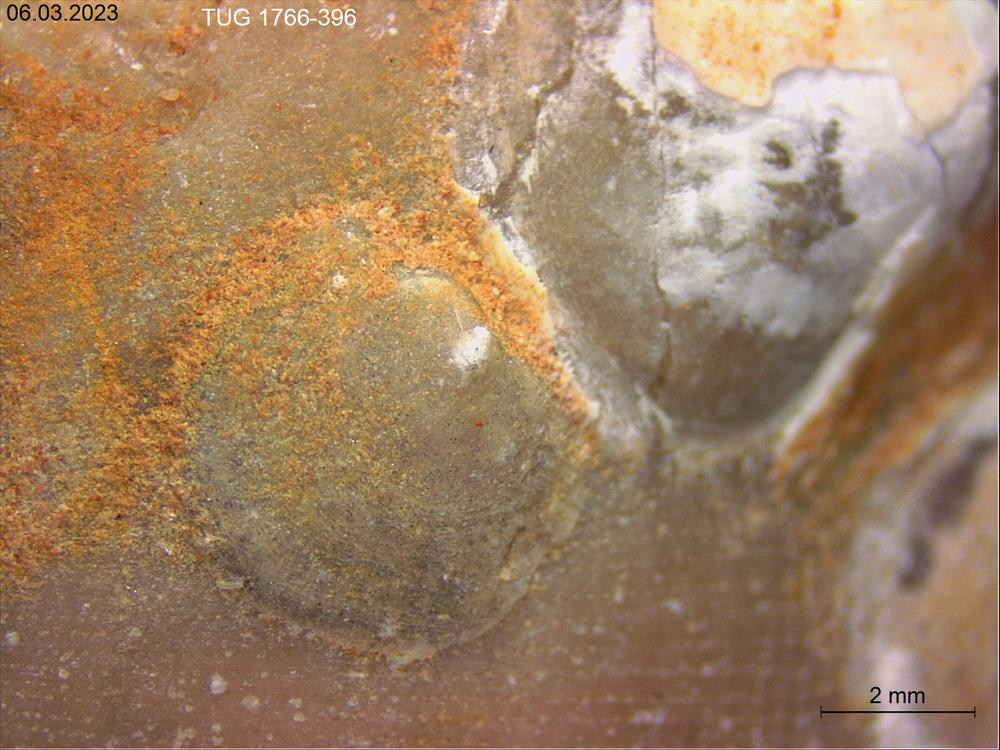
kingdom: Animalia
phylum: Brachiopoda
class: Craniata
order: Craniida
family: Craniidae
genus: Philhedra
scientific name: Philhedra
